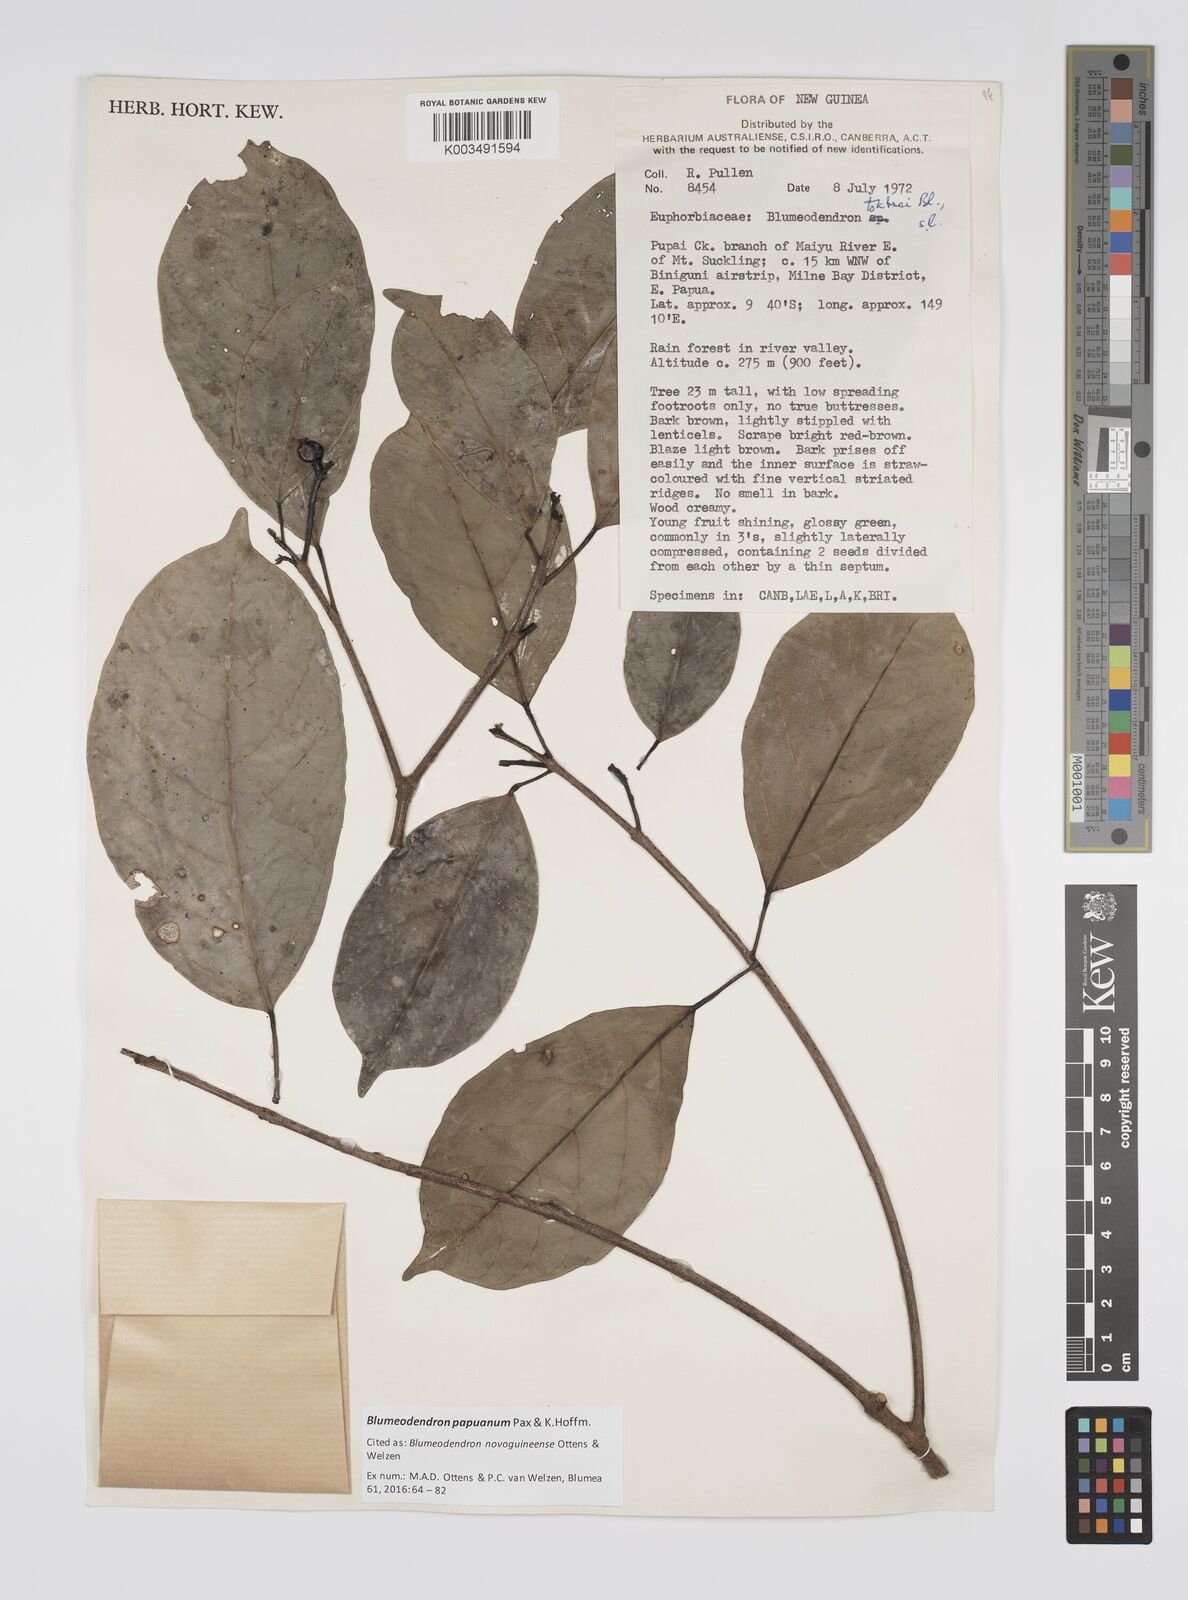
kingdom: Plantae
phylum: Tracheophyta
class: Magnoliopsida
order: Malpighiales
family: Euphorbiaceae
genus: Blumeodendron
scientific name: Blumeodendron papuanum
